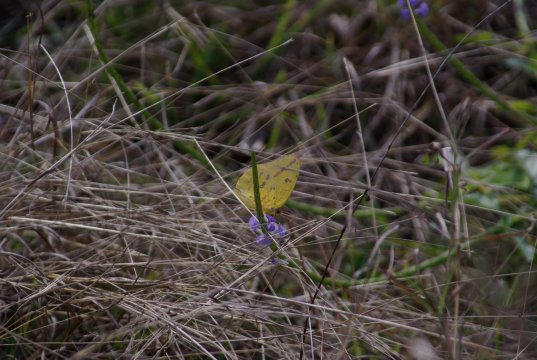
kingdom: Animalia
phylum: Arthropoda
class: Insecta
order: Lepidoptera
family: Pieridae
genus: Phoebis
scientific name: Phoebis agarithe
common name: Large Orange Sulphur
